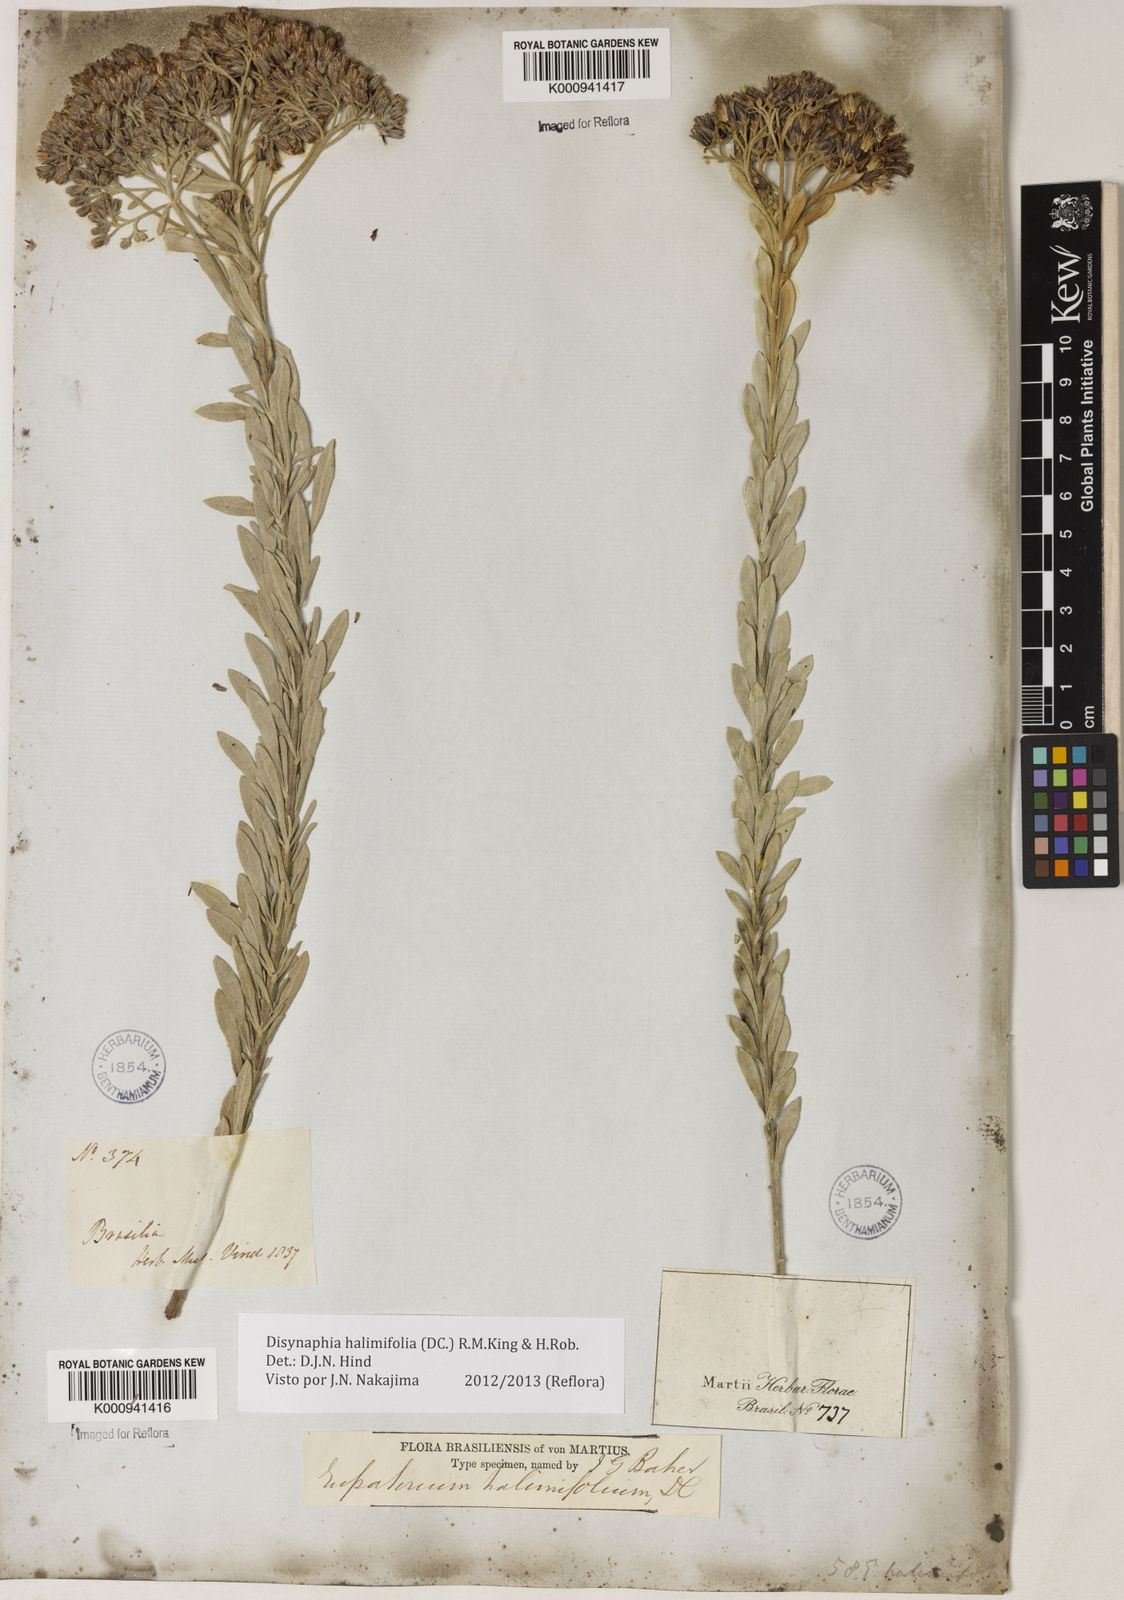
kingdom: Plantae
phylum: Tracheophyta
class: Magnoliopsida
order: Asterales
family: Asteraceae
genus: Disynaphia
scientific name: Disynaphia halimifolia
